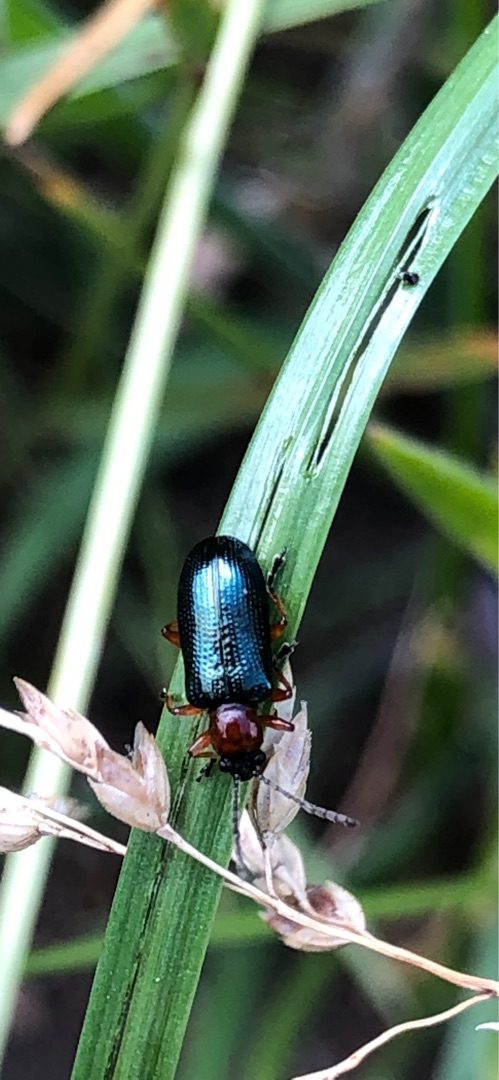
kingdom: Animalia
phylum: Arthropoda
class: Insecta
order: Coleoptera
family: Chrysomelidae
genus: Oulema
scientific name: Oulema
